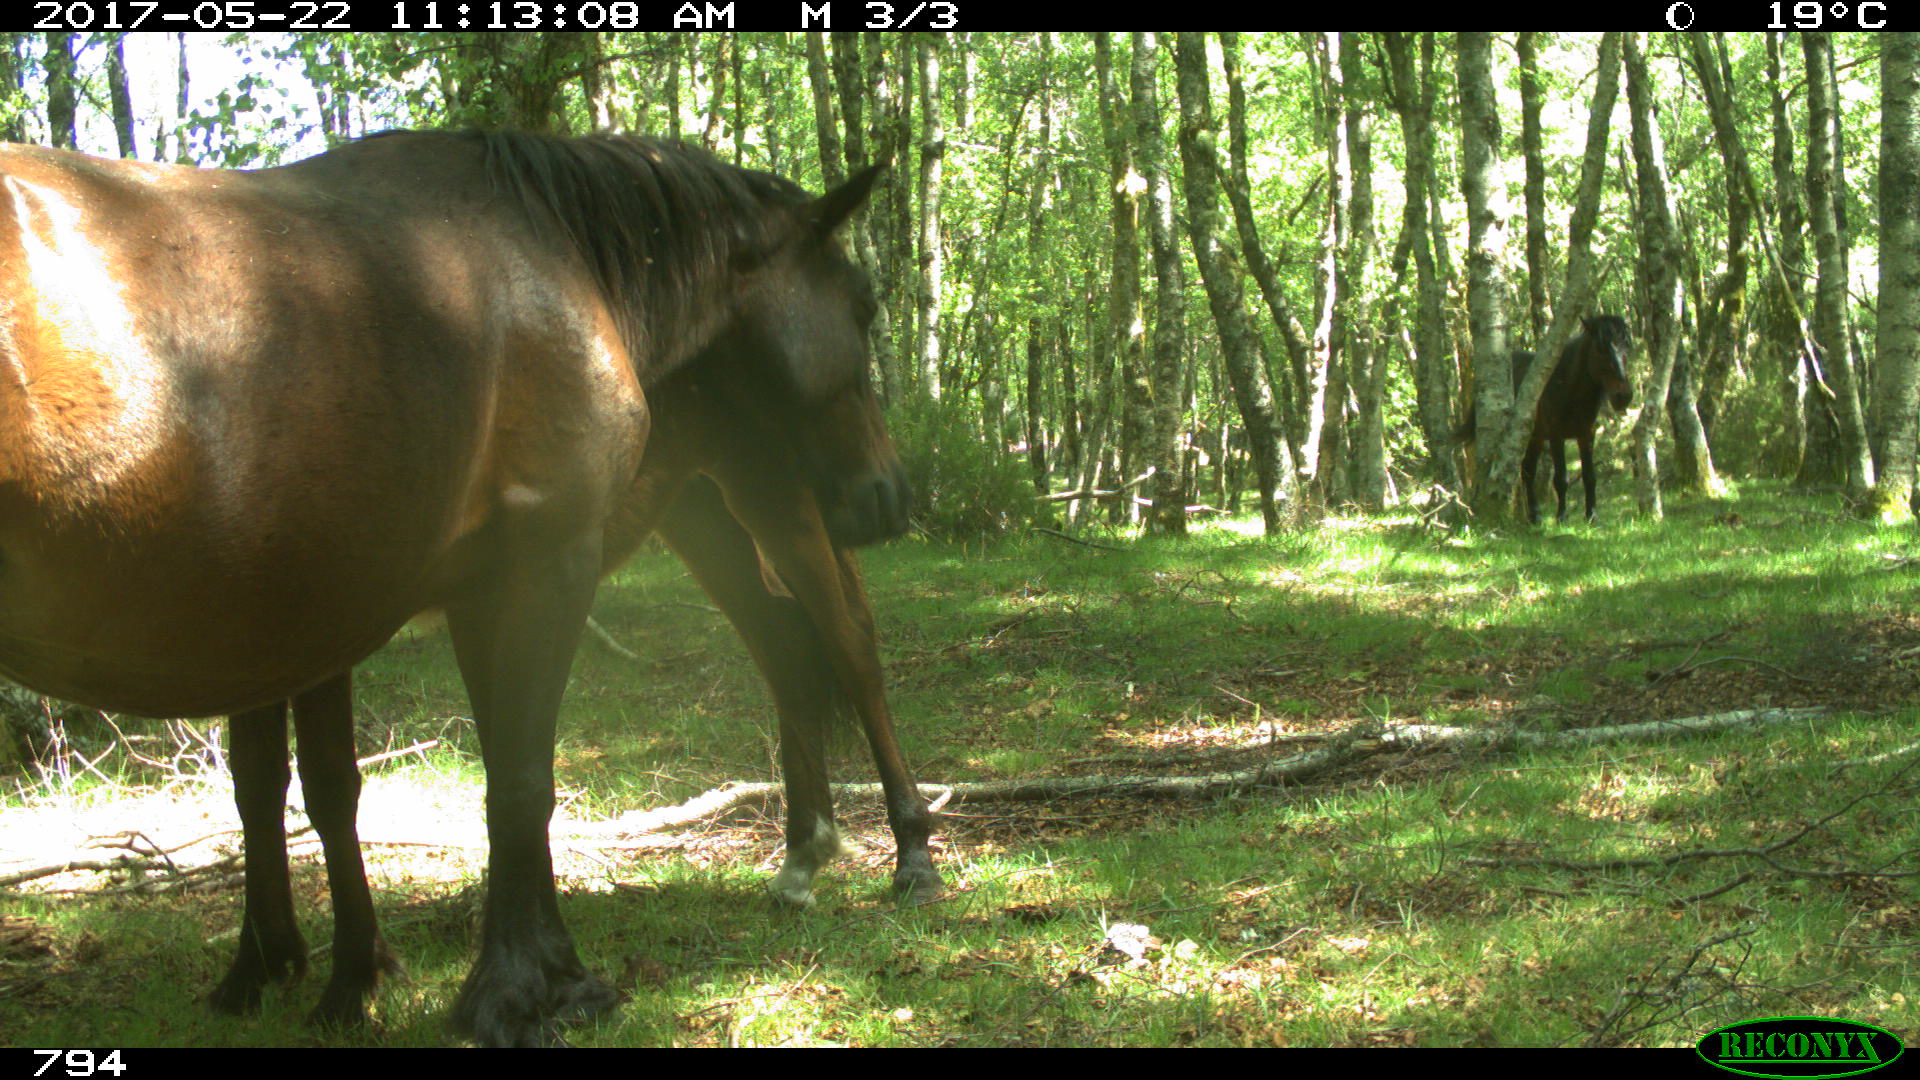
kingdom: Animalia
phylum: Chordata
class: Mammalia
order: Perissodactyla
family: Equidae
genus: Equus
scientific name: Equus caballus
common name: Horse
